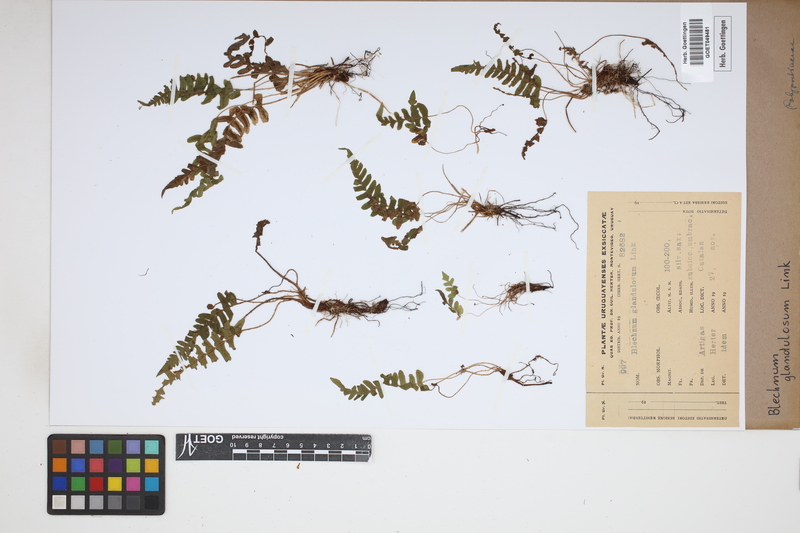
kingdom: Plantae
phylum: Tracheophyta
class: Polypodiopsida
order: Polypodiales
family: Blechnaceae
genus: Blechnum
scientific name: Blechnum appendiculatum
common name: Palm fern
